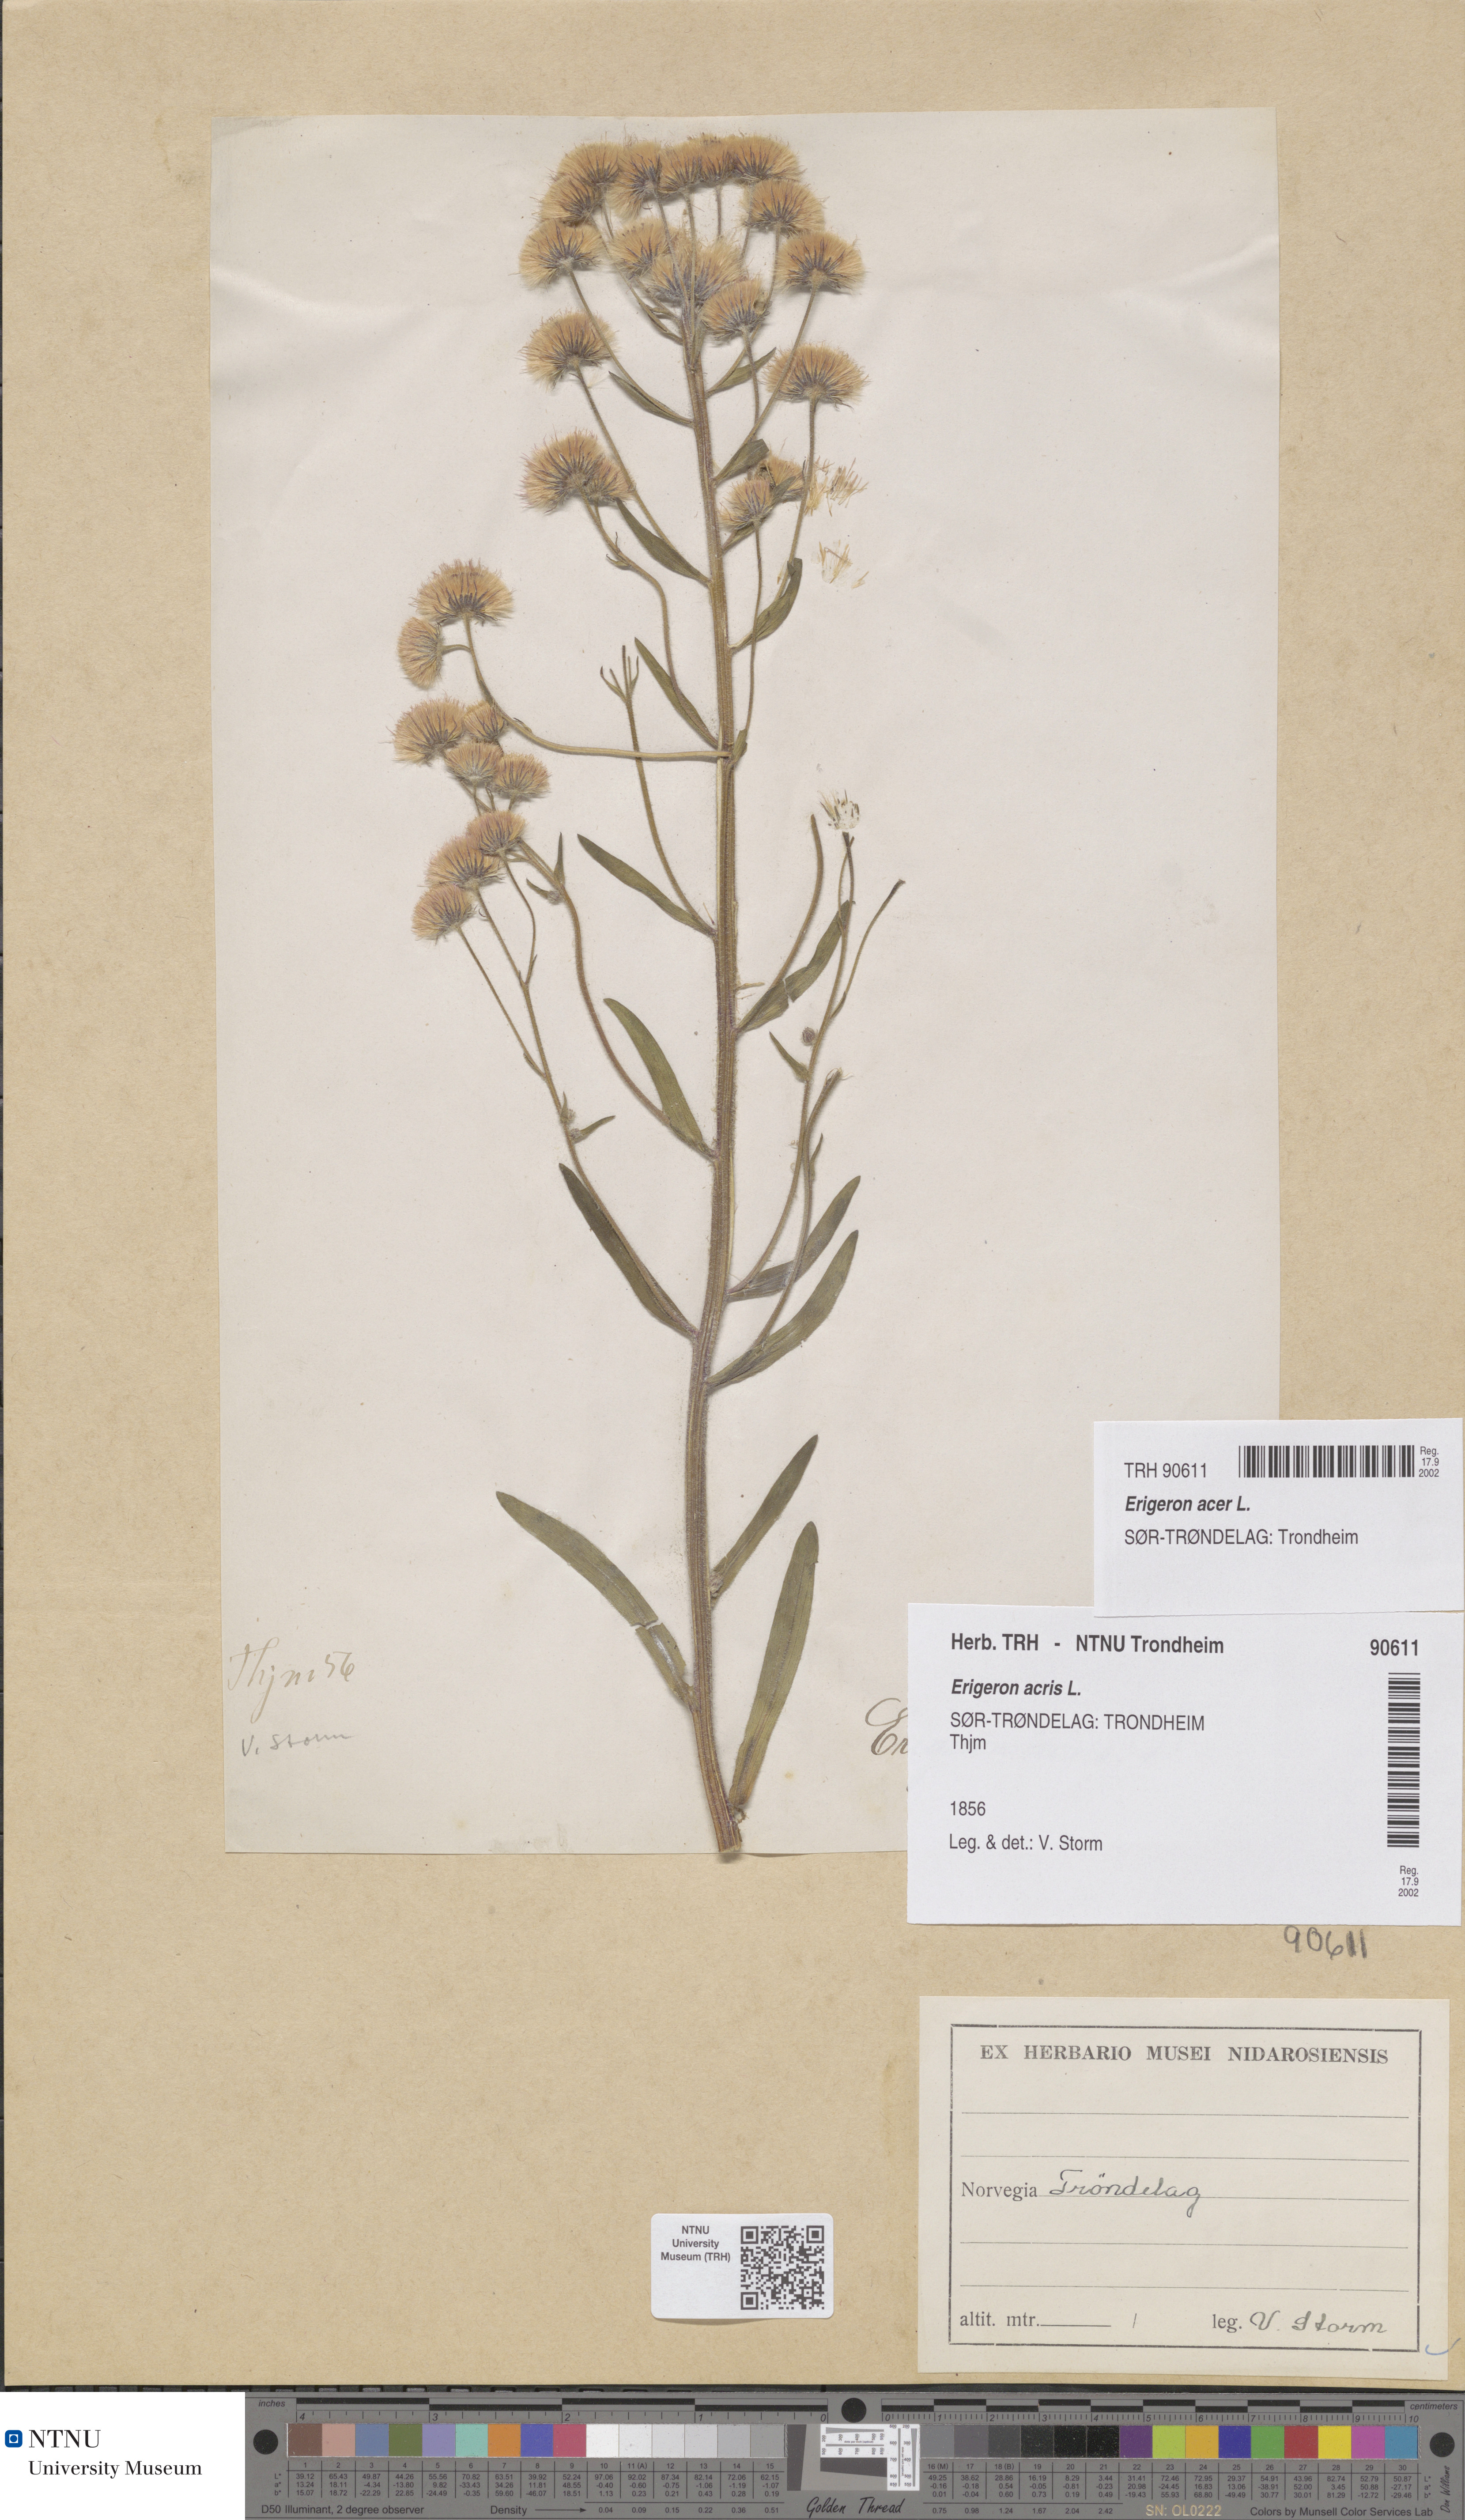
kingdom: Plantae
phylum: Tracheophyta
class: Magnoliopsida
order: Asterales
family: Asteraceae
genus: Erigeron
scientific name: Erigeron acris
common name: Blue fleabane
